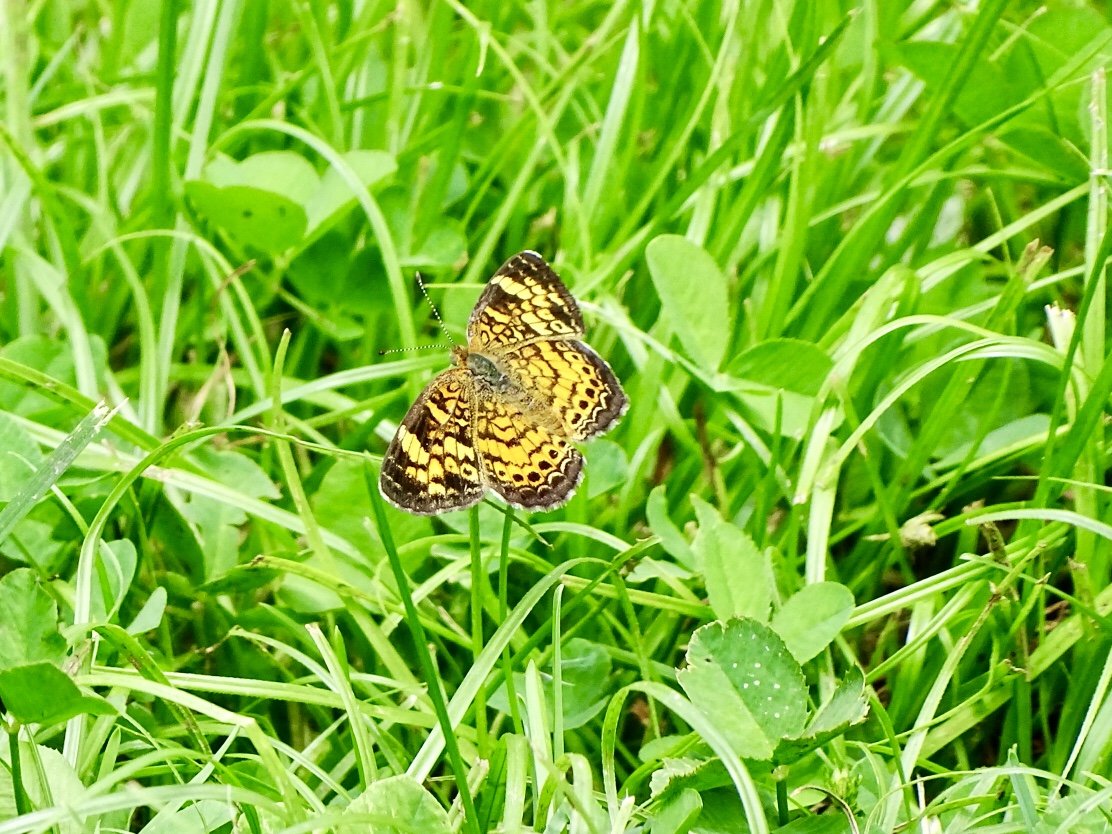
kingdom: Animalia
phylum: Arthropoda
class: Insecta
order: Lepidoptera
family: Nymphalidae
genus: Phyciodes
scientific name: Phyciodes tharos
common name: Pearl Crescent
